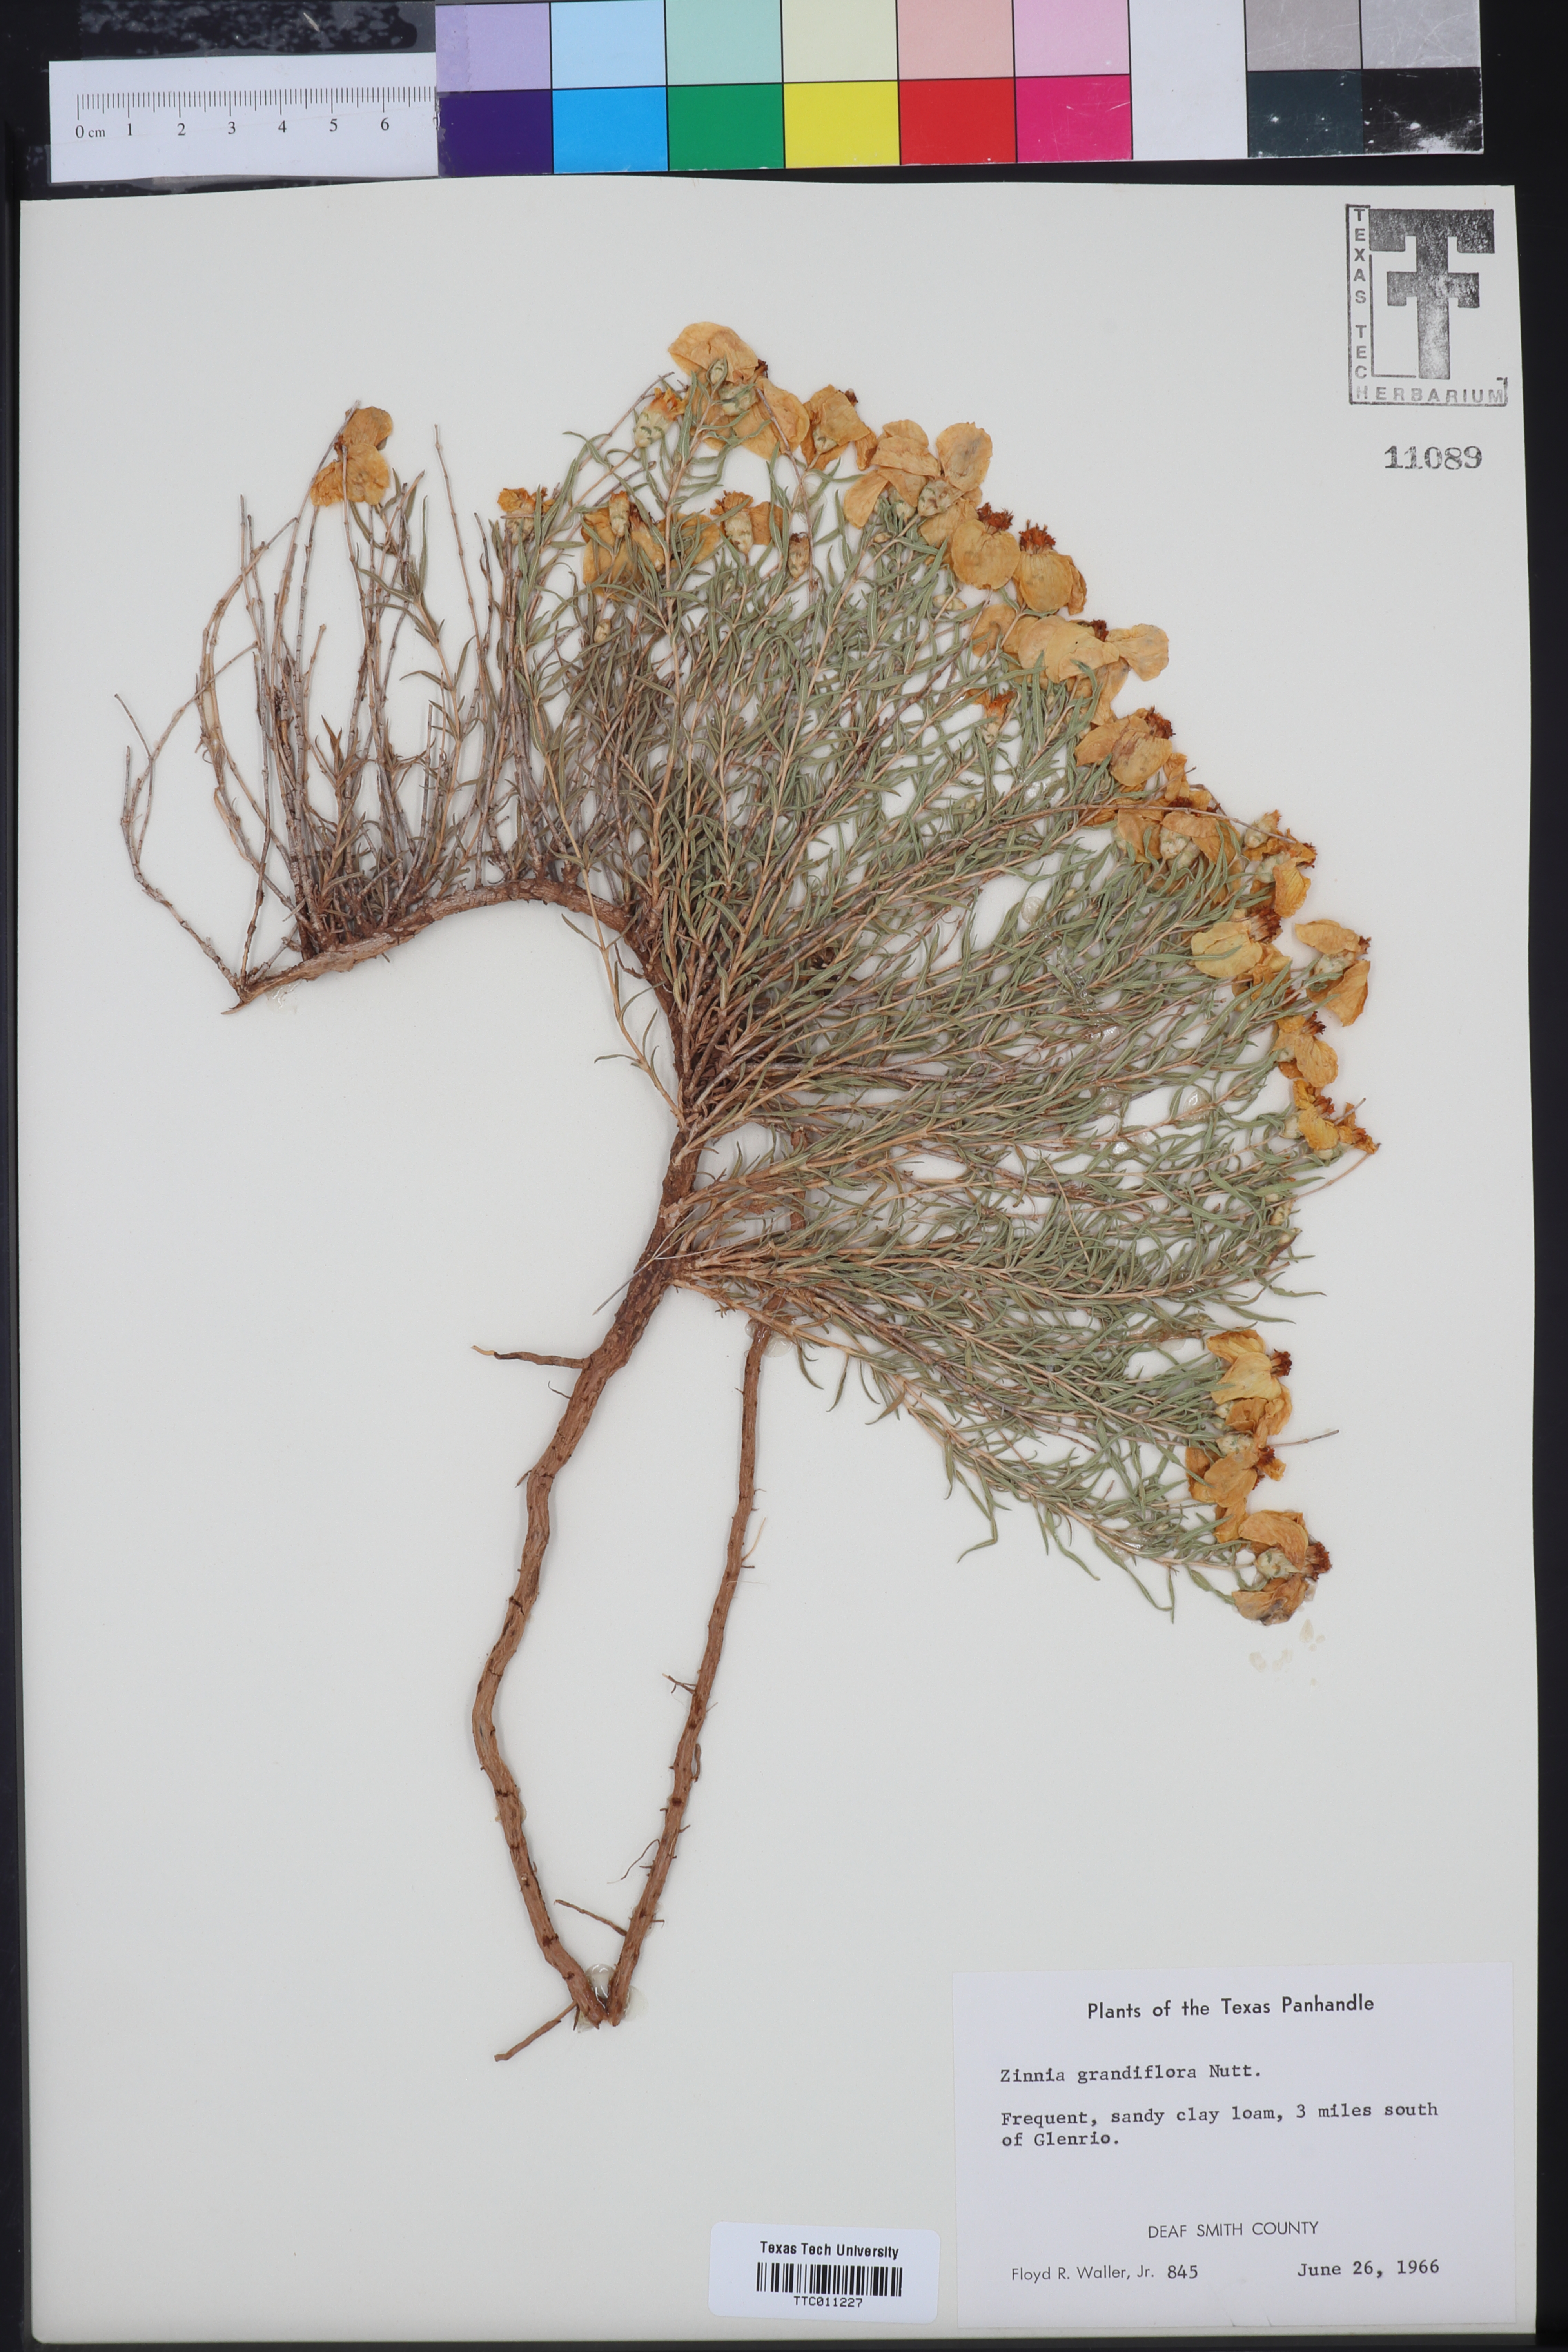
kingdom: Plantae
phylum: Tracheophyta
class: Magnoliopsida
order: Asterales
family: Asteraceae
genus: Zinnia
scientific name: Zinnia grandiflora
